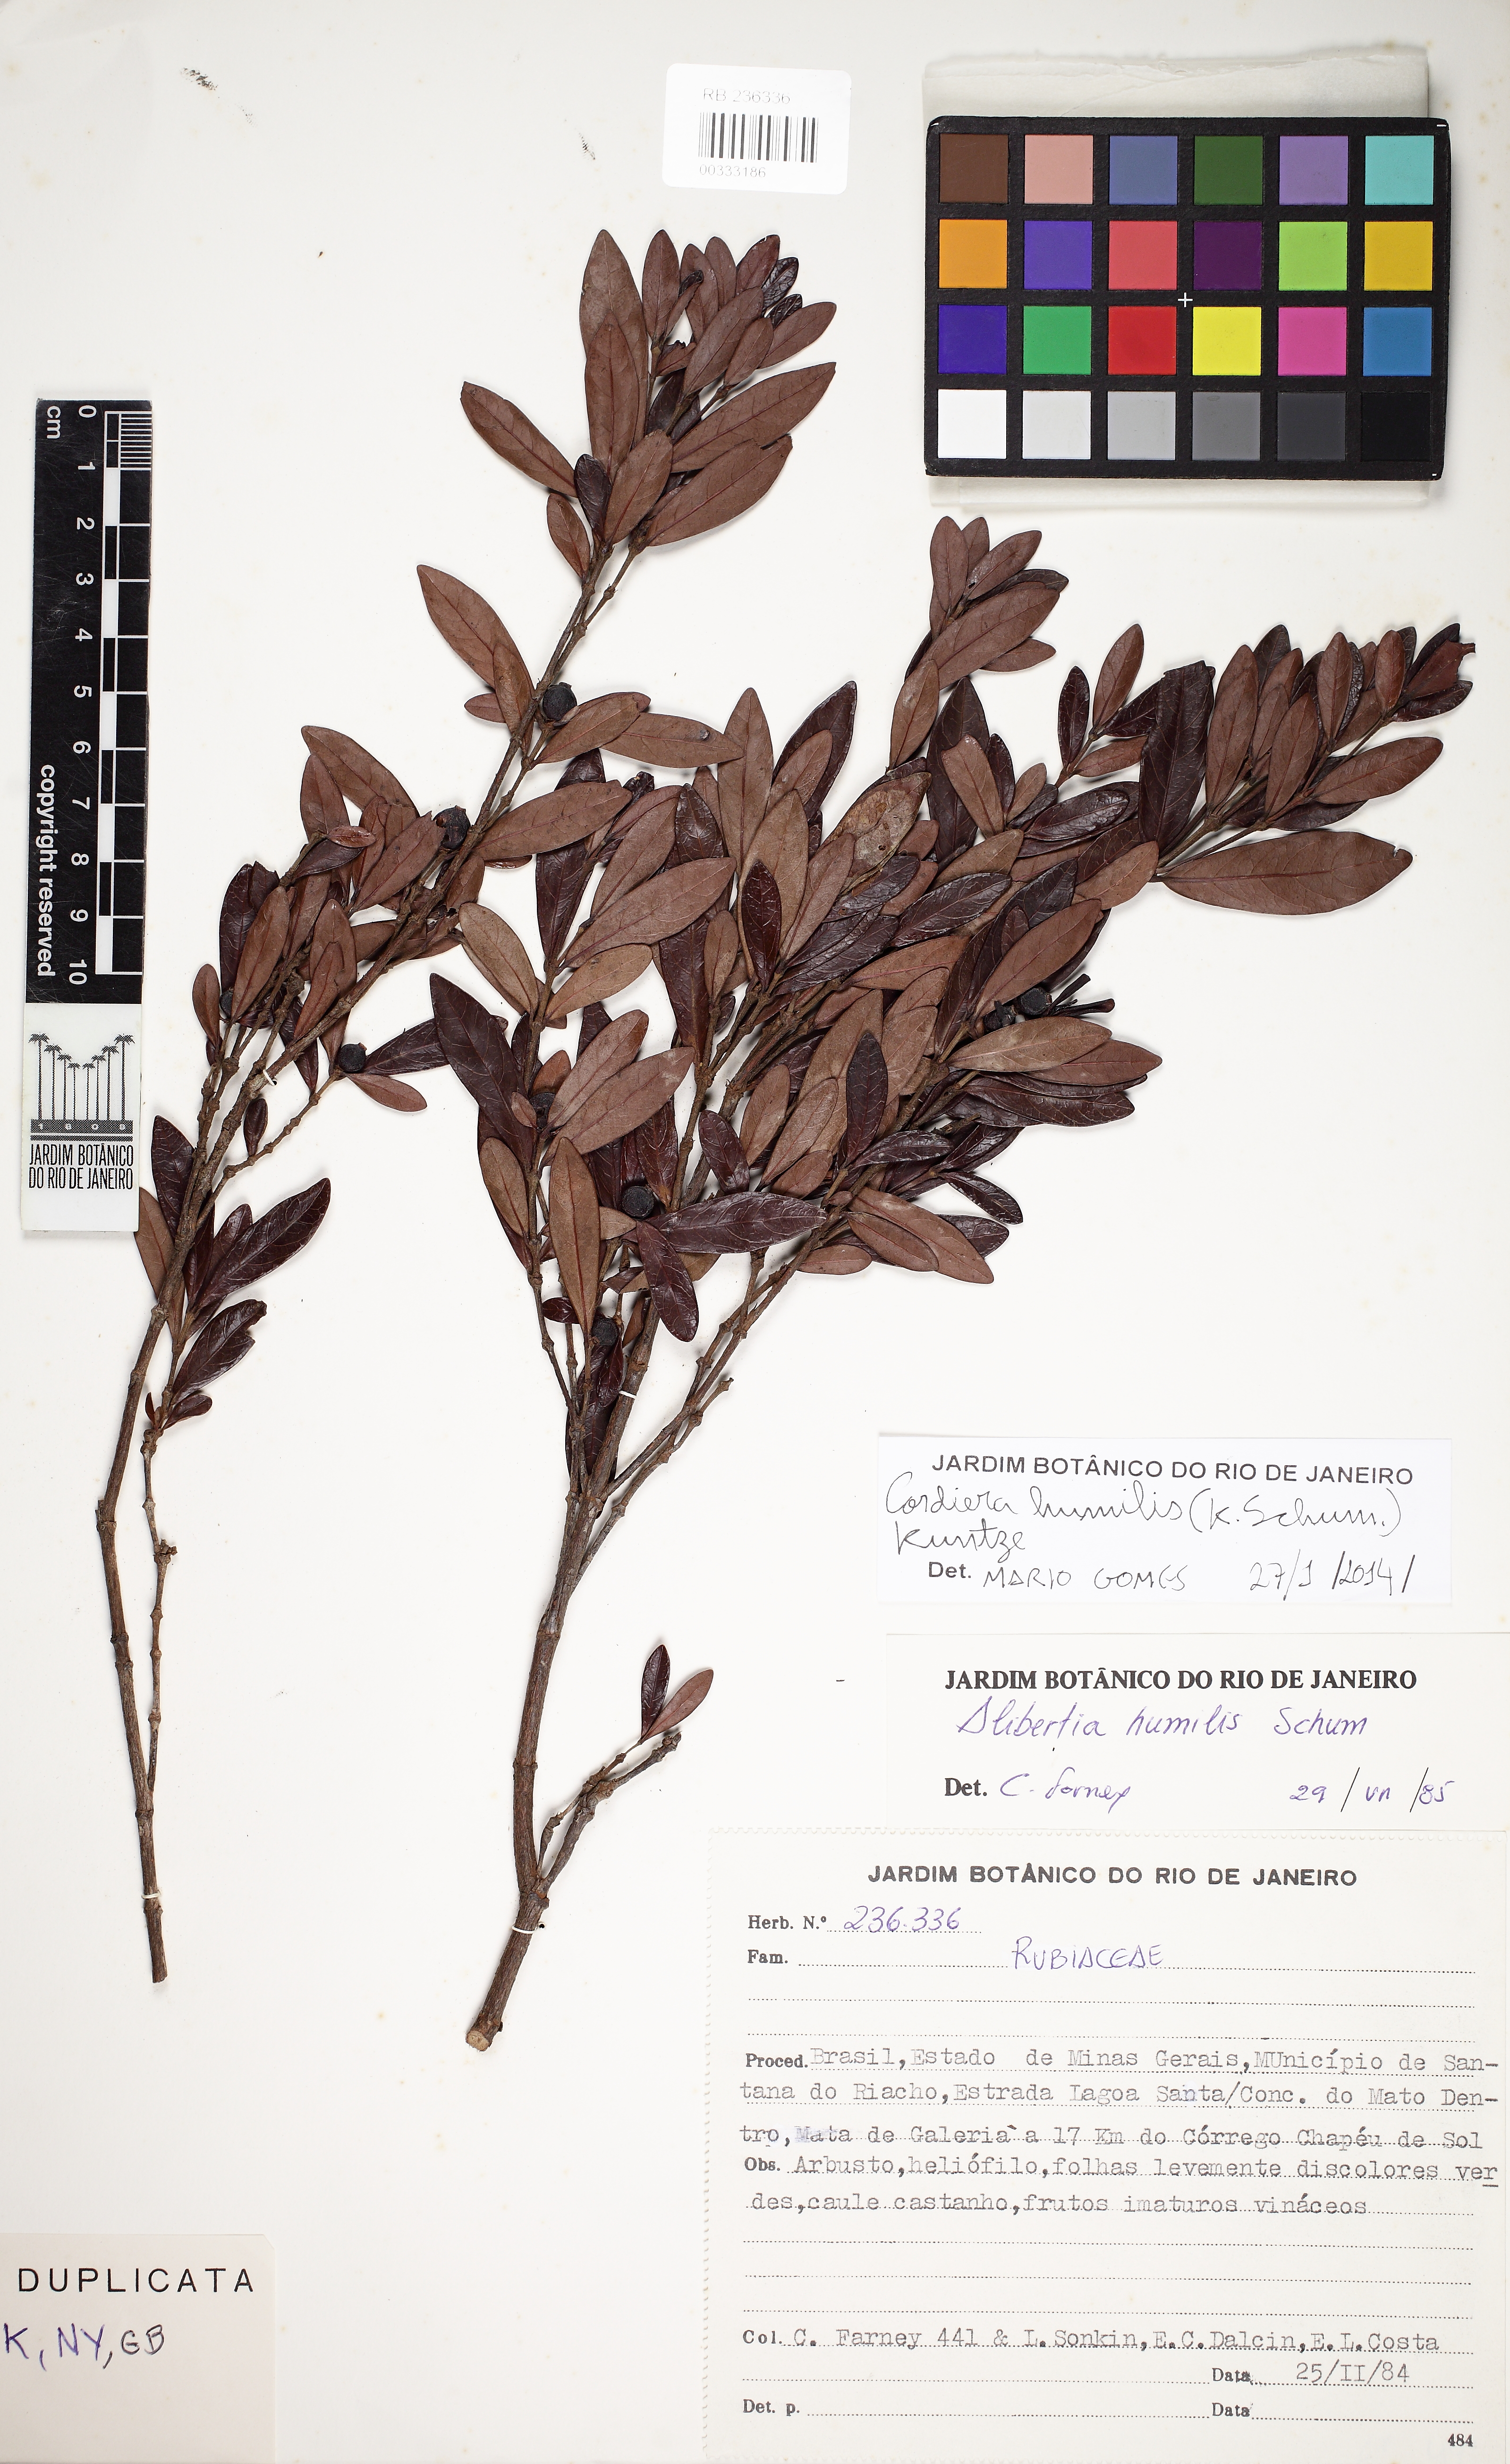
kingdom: Plantae
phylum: Tracheophyta
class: Magnoliopsida
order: Gentianales
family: Rubiaceae
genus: Cordiera
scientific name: Cordiera rigida
